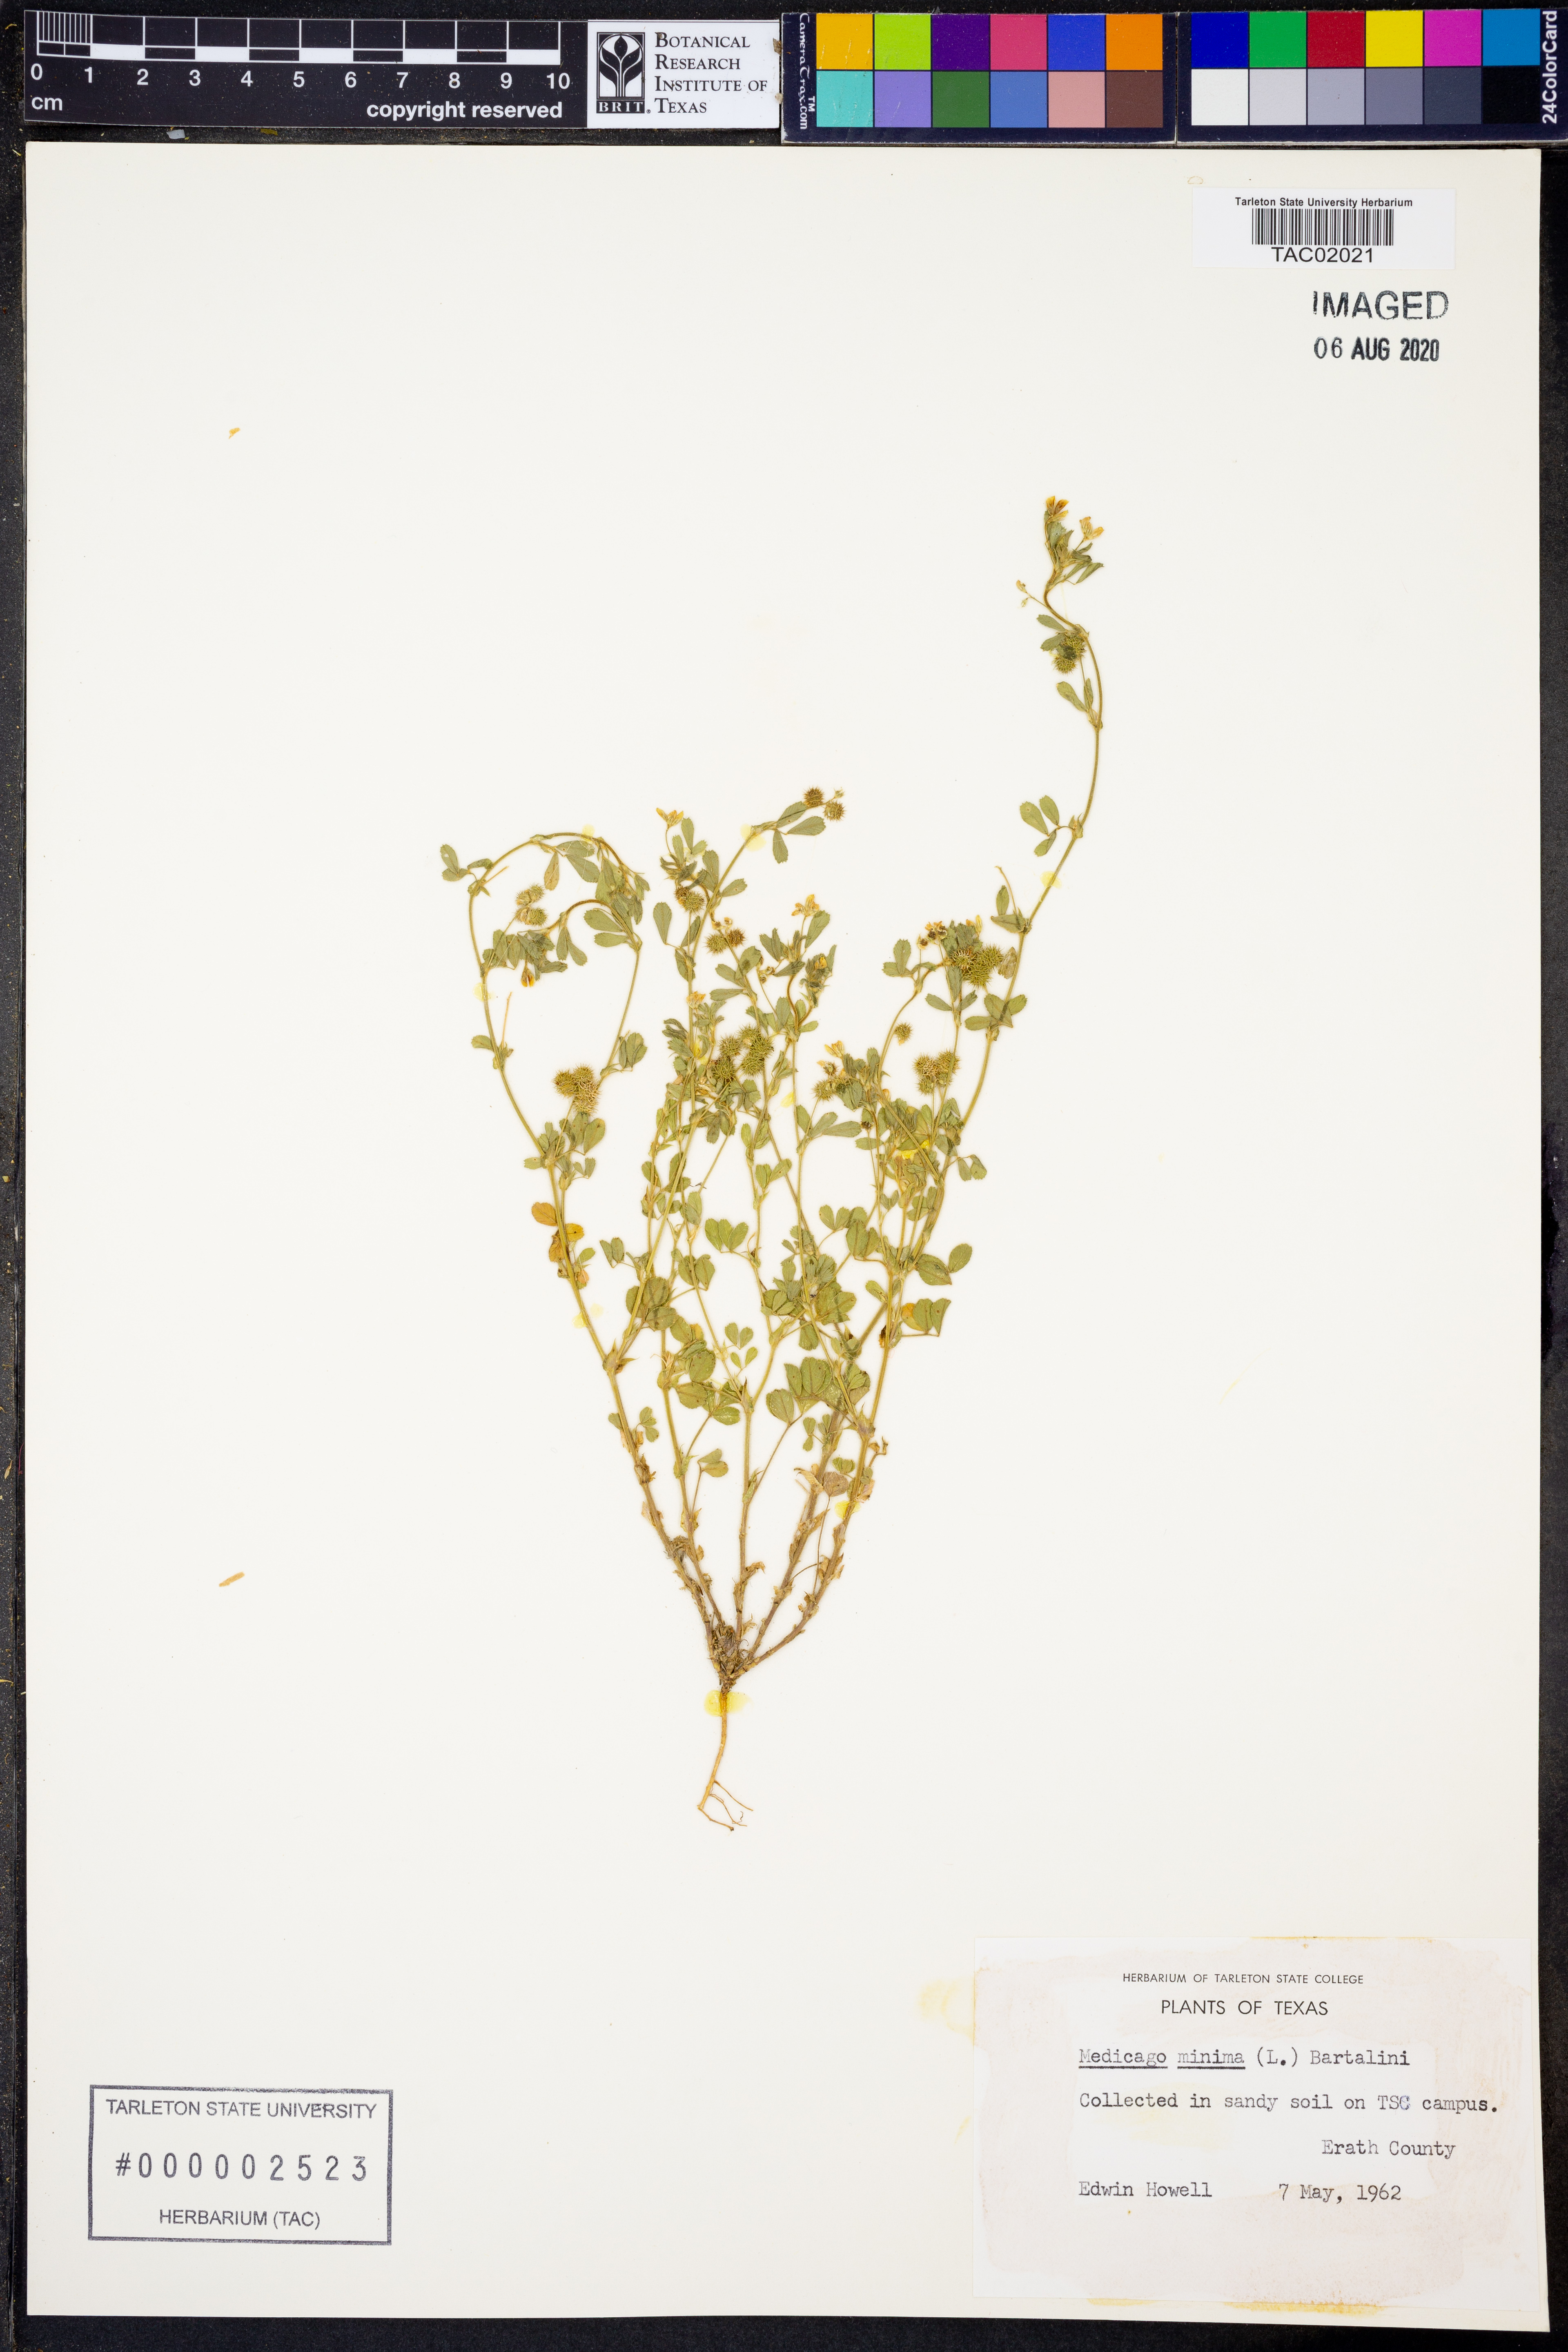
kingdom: Plantae
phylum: Tracheophyta
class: Magnoliopsida
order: Fabales
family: Fabaceae
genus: Medicago
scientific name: Medicago minima
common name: Little bur-clover
